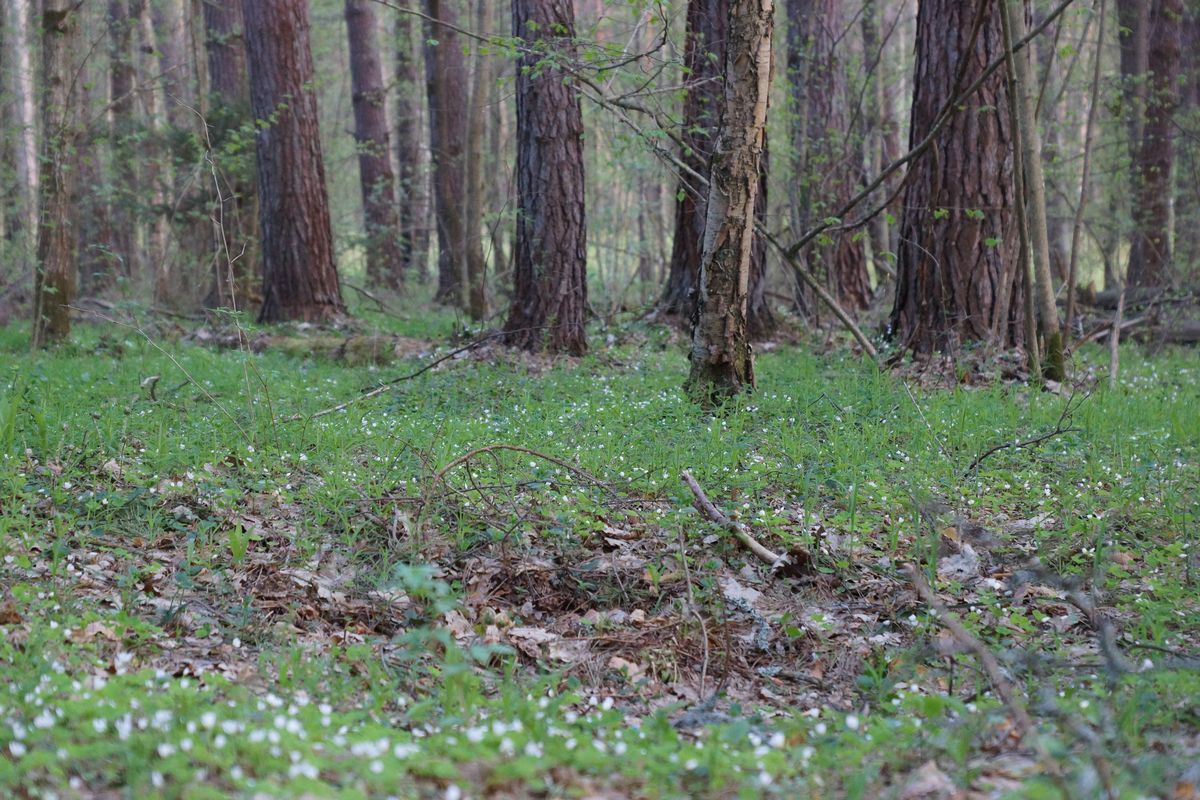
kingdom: Plantae
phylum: Tracheophyta
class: Magnoliopsida
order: Oxalidales
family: Oxalidaceae
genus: Oxalis
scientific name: Oxalis acetosella
